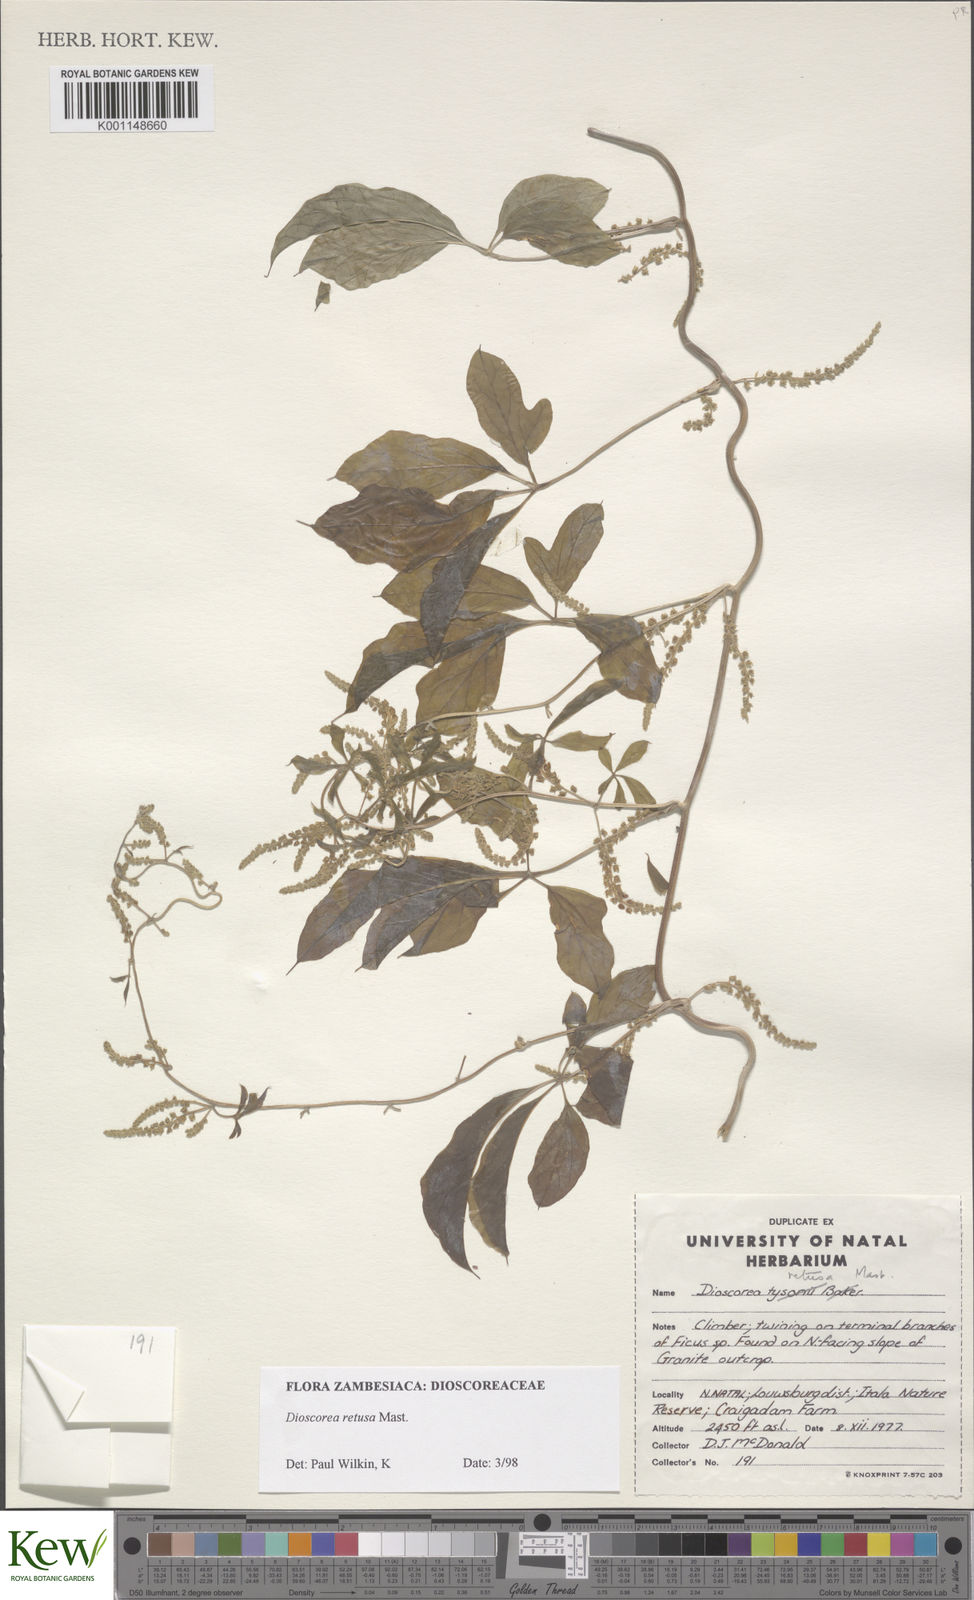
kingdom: Plantae
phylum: Tracheophyta
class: Liliopsida
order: Dioscoreales
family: Dioscoreaceae
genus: Dioscorea
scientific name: Dioscorea retusa
